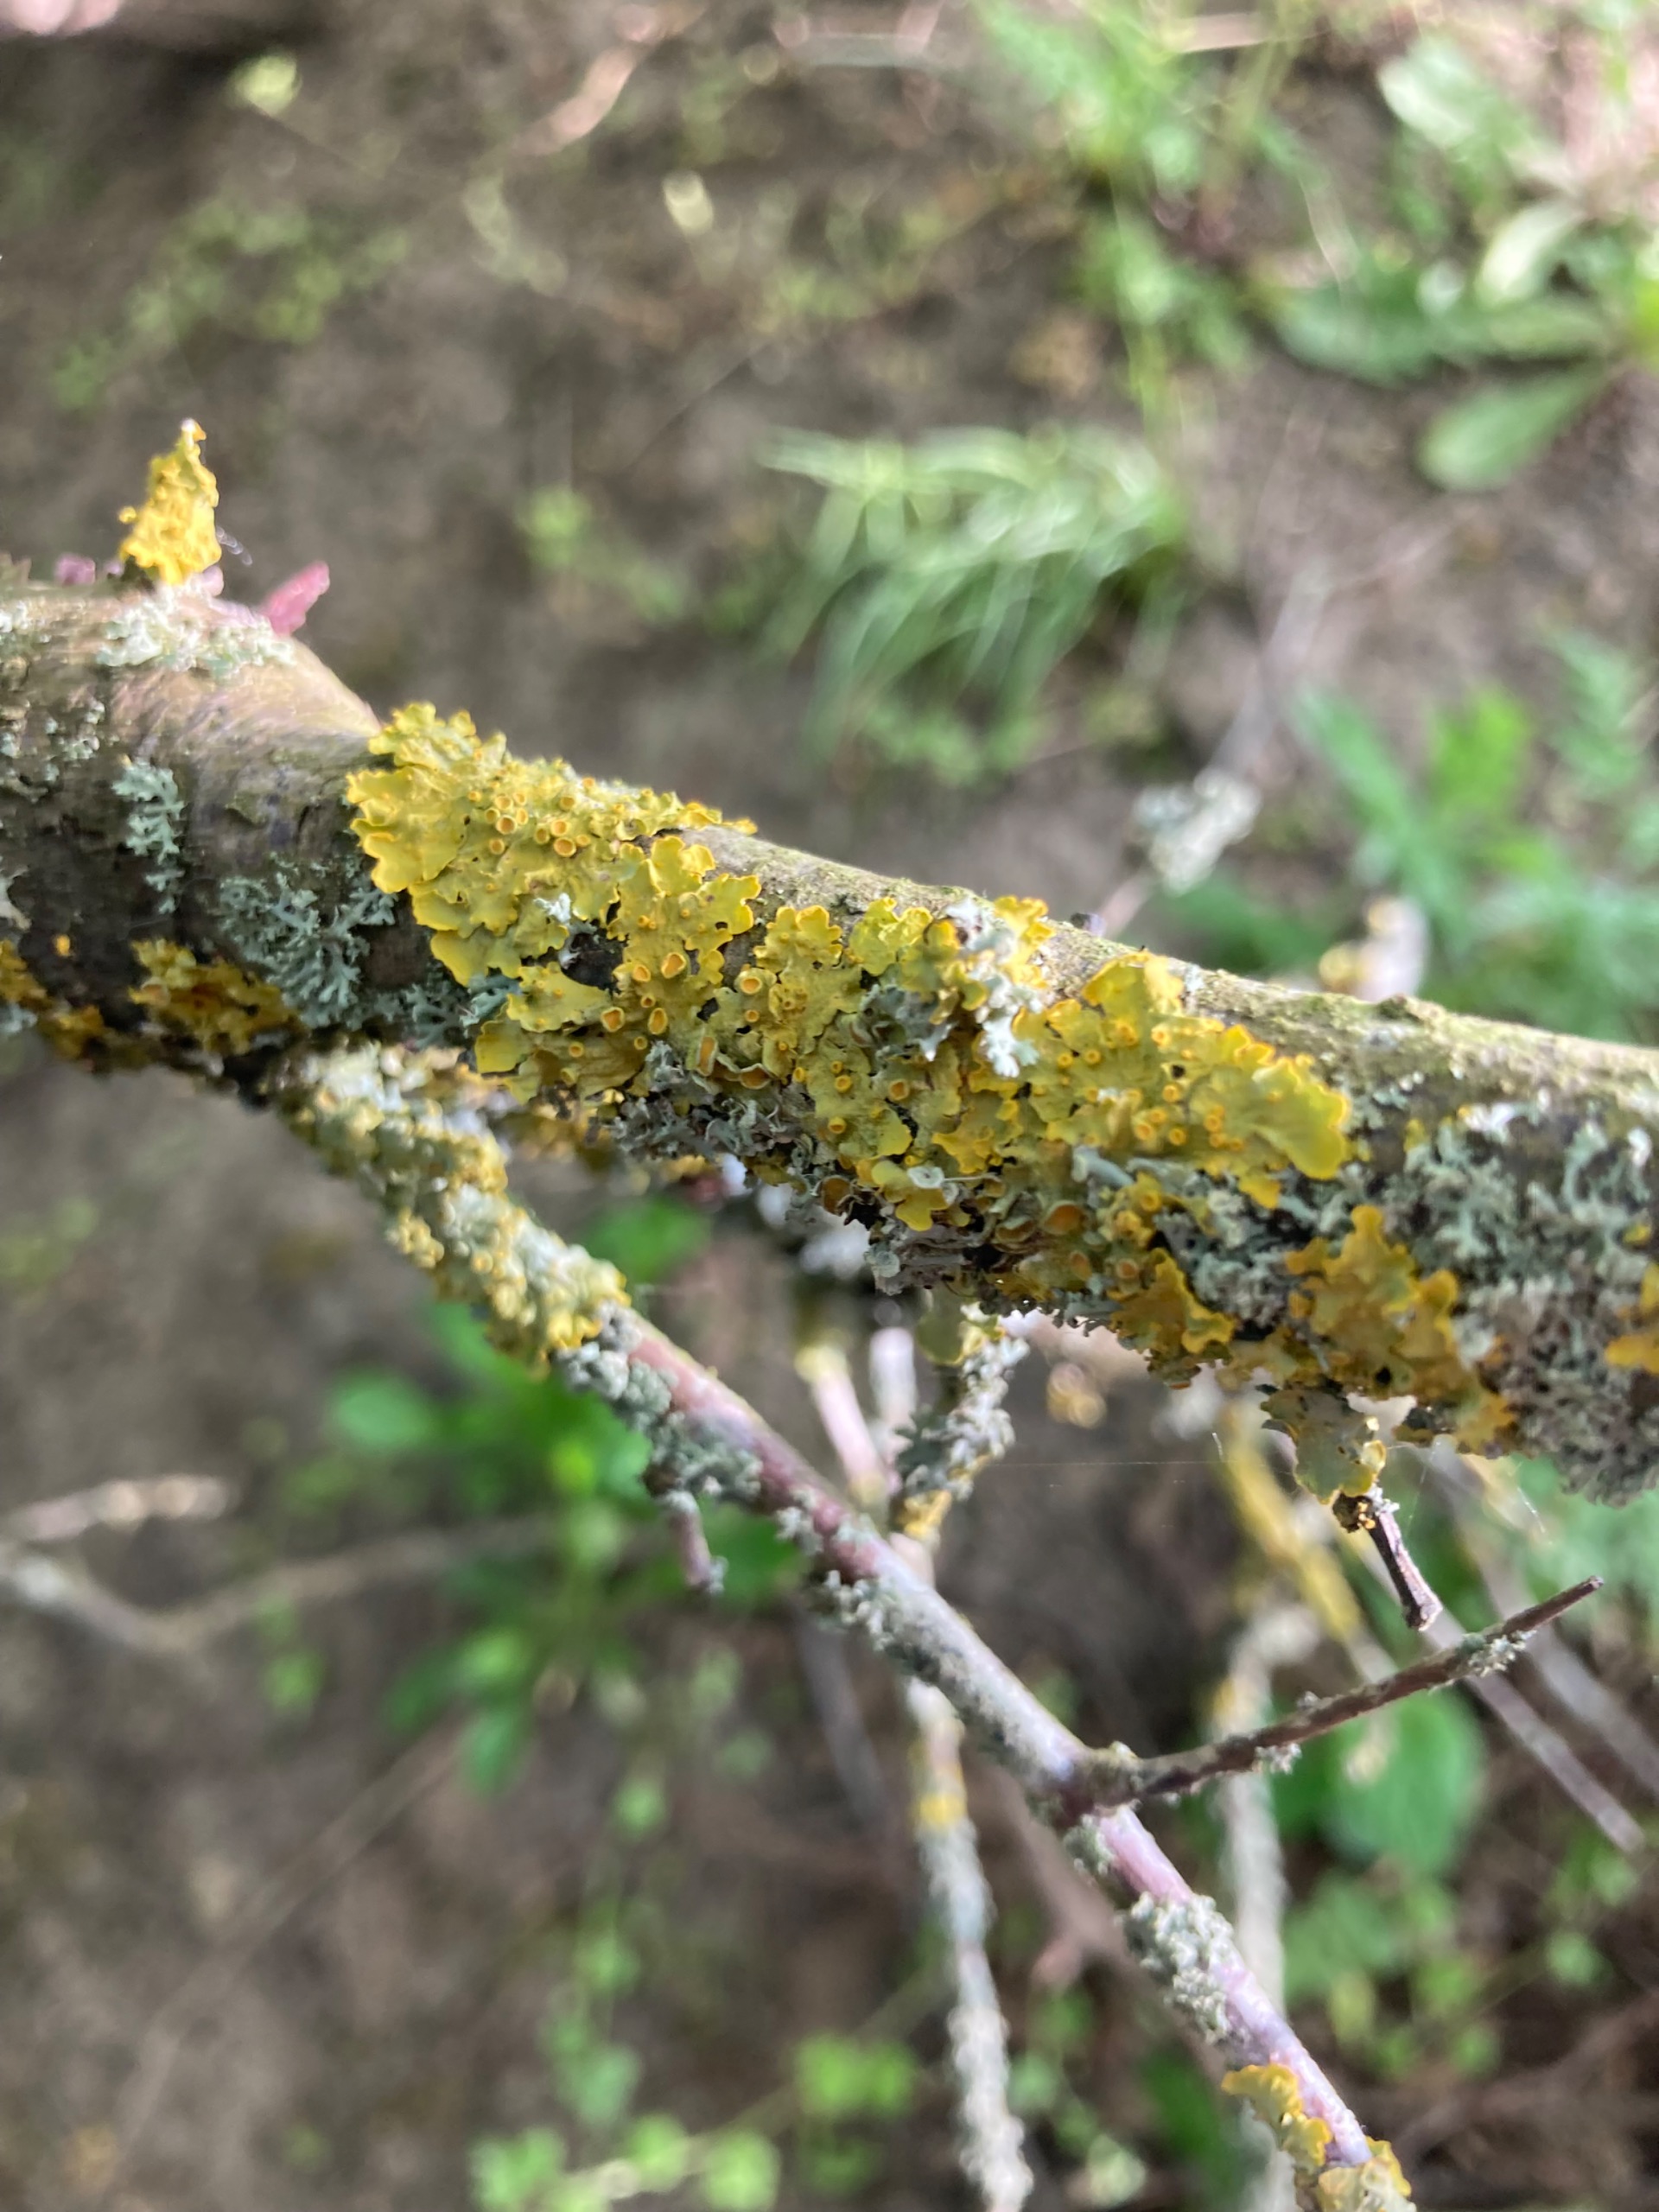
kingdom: Fungi
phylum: Ascomycota
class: Lecanoromycetes
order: Teloschistales
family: Teloschistaceae
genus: Xanthoria
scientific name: Xanthoria parietina
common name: Almindelig væggelav
